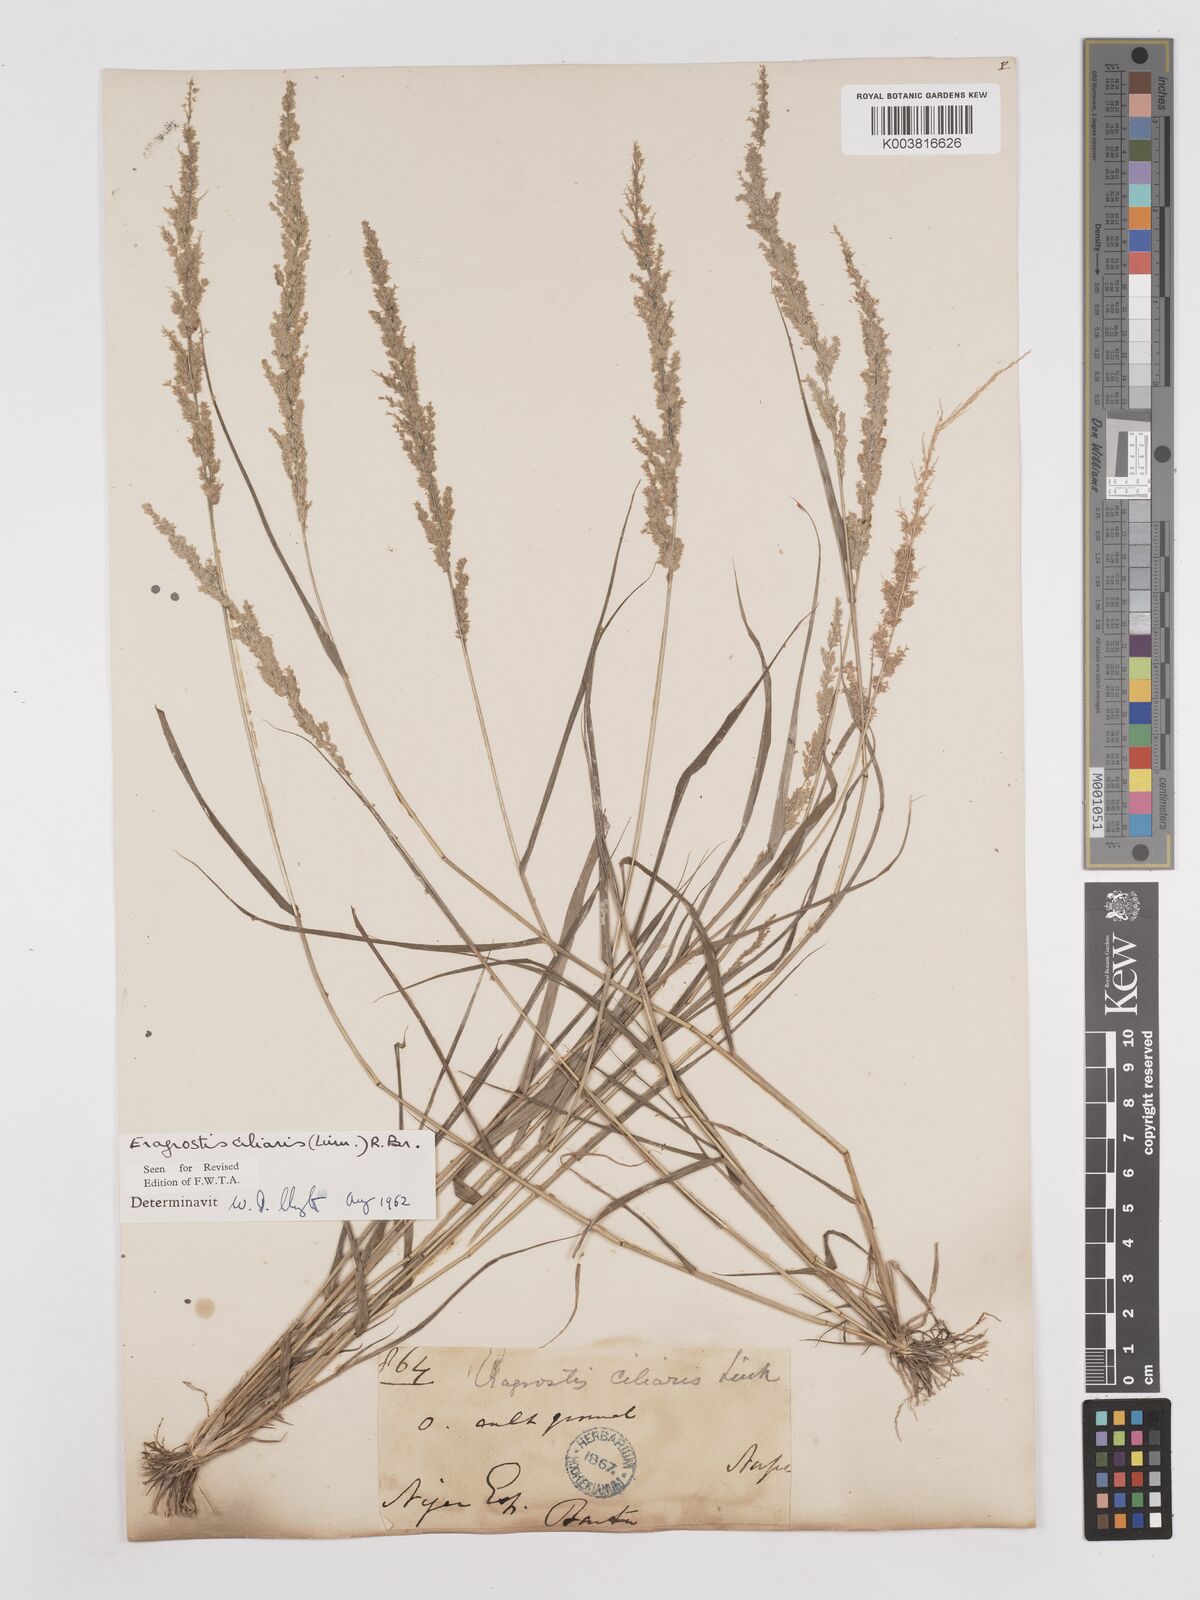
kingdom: Plantae
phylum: Tracheophyta
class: Liliopsida
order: Poales
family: Poaceae
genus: Eragrostis
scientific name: Eragrostis ciliaris
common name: Gophertail lovegrass
